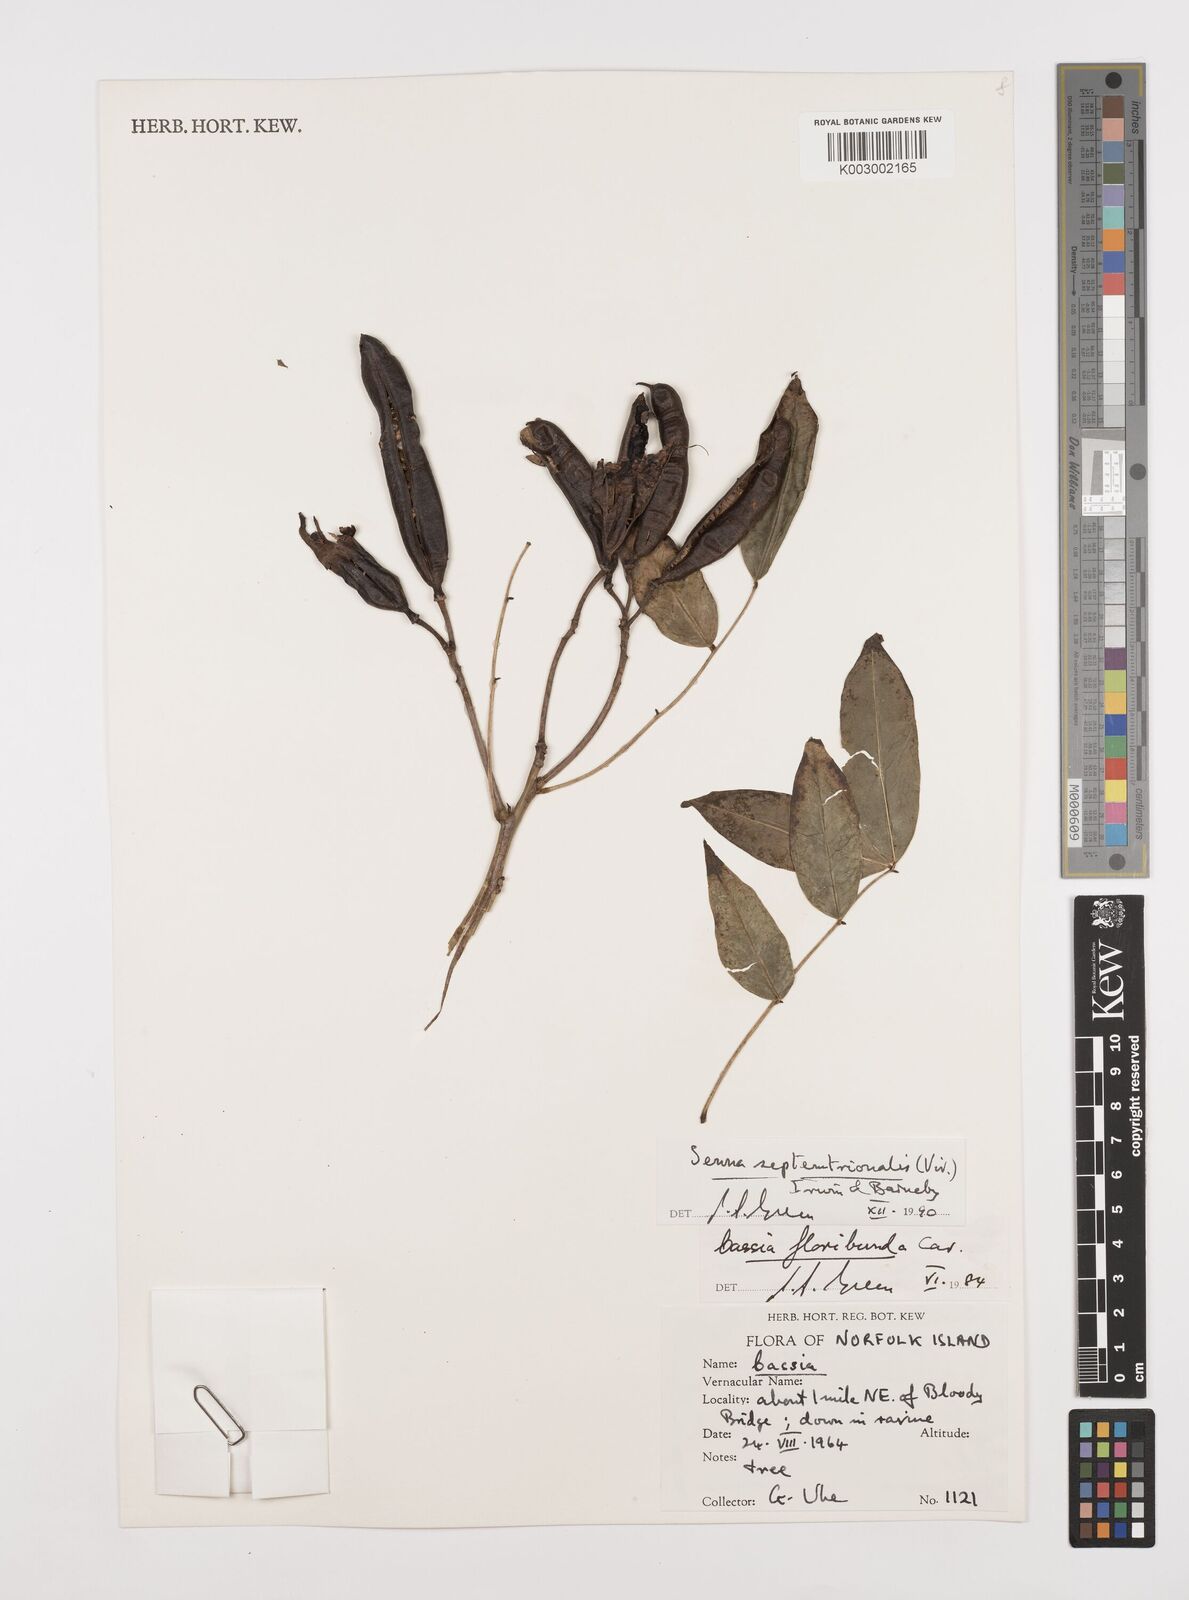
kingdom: Plantae
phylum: Tracheophyta
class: Magnoliopsida
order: Fabales
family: Fabaceae
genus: Senna
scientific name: Senna septemtrionalis
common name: Arsenic bush
